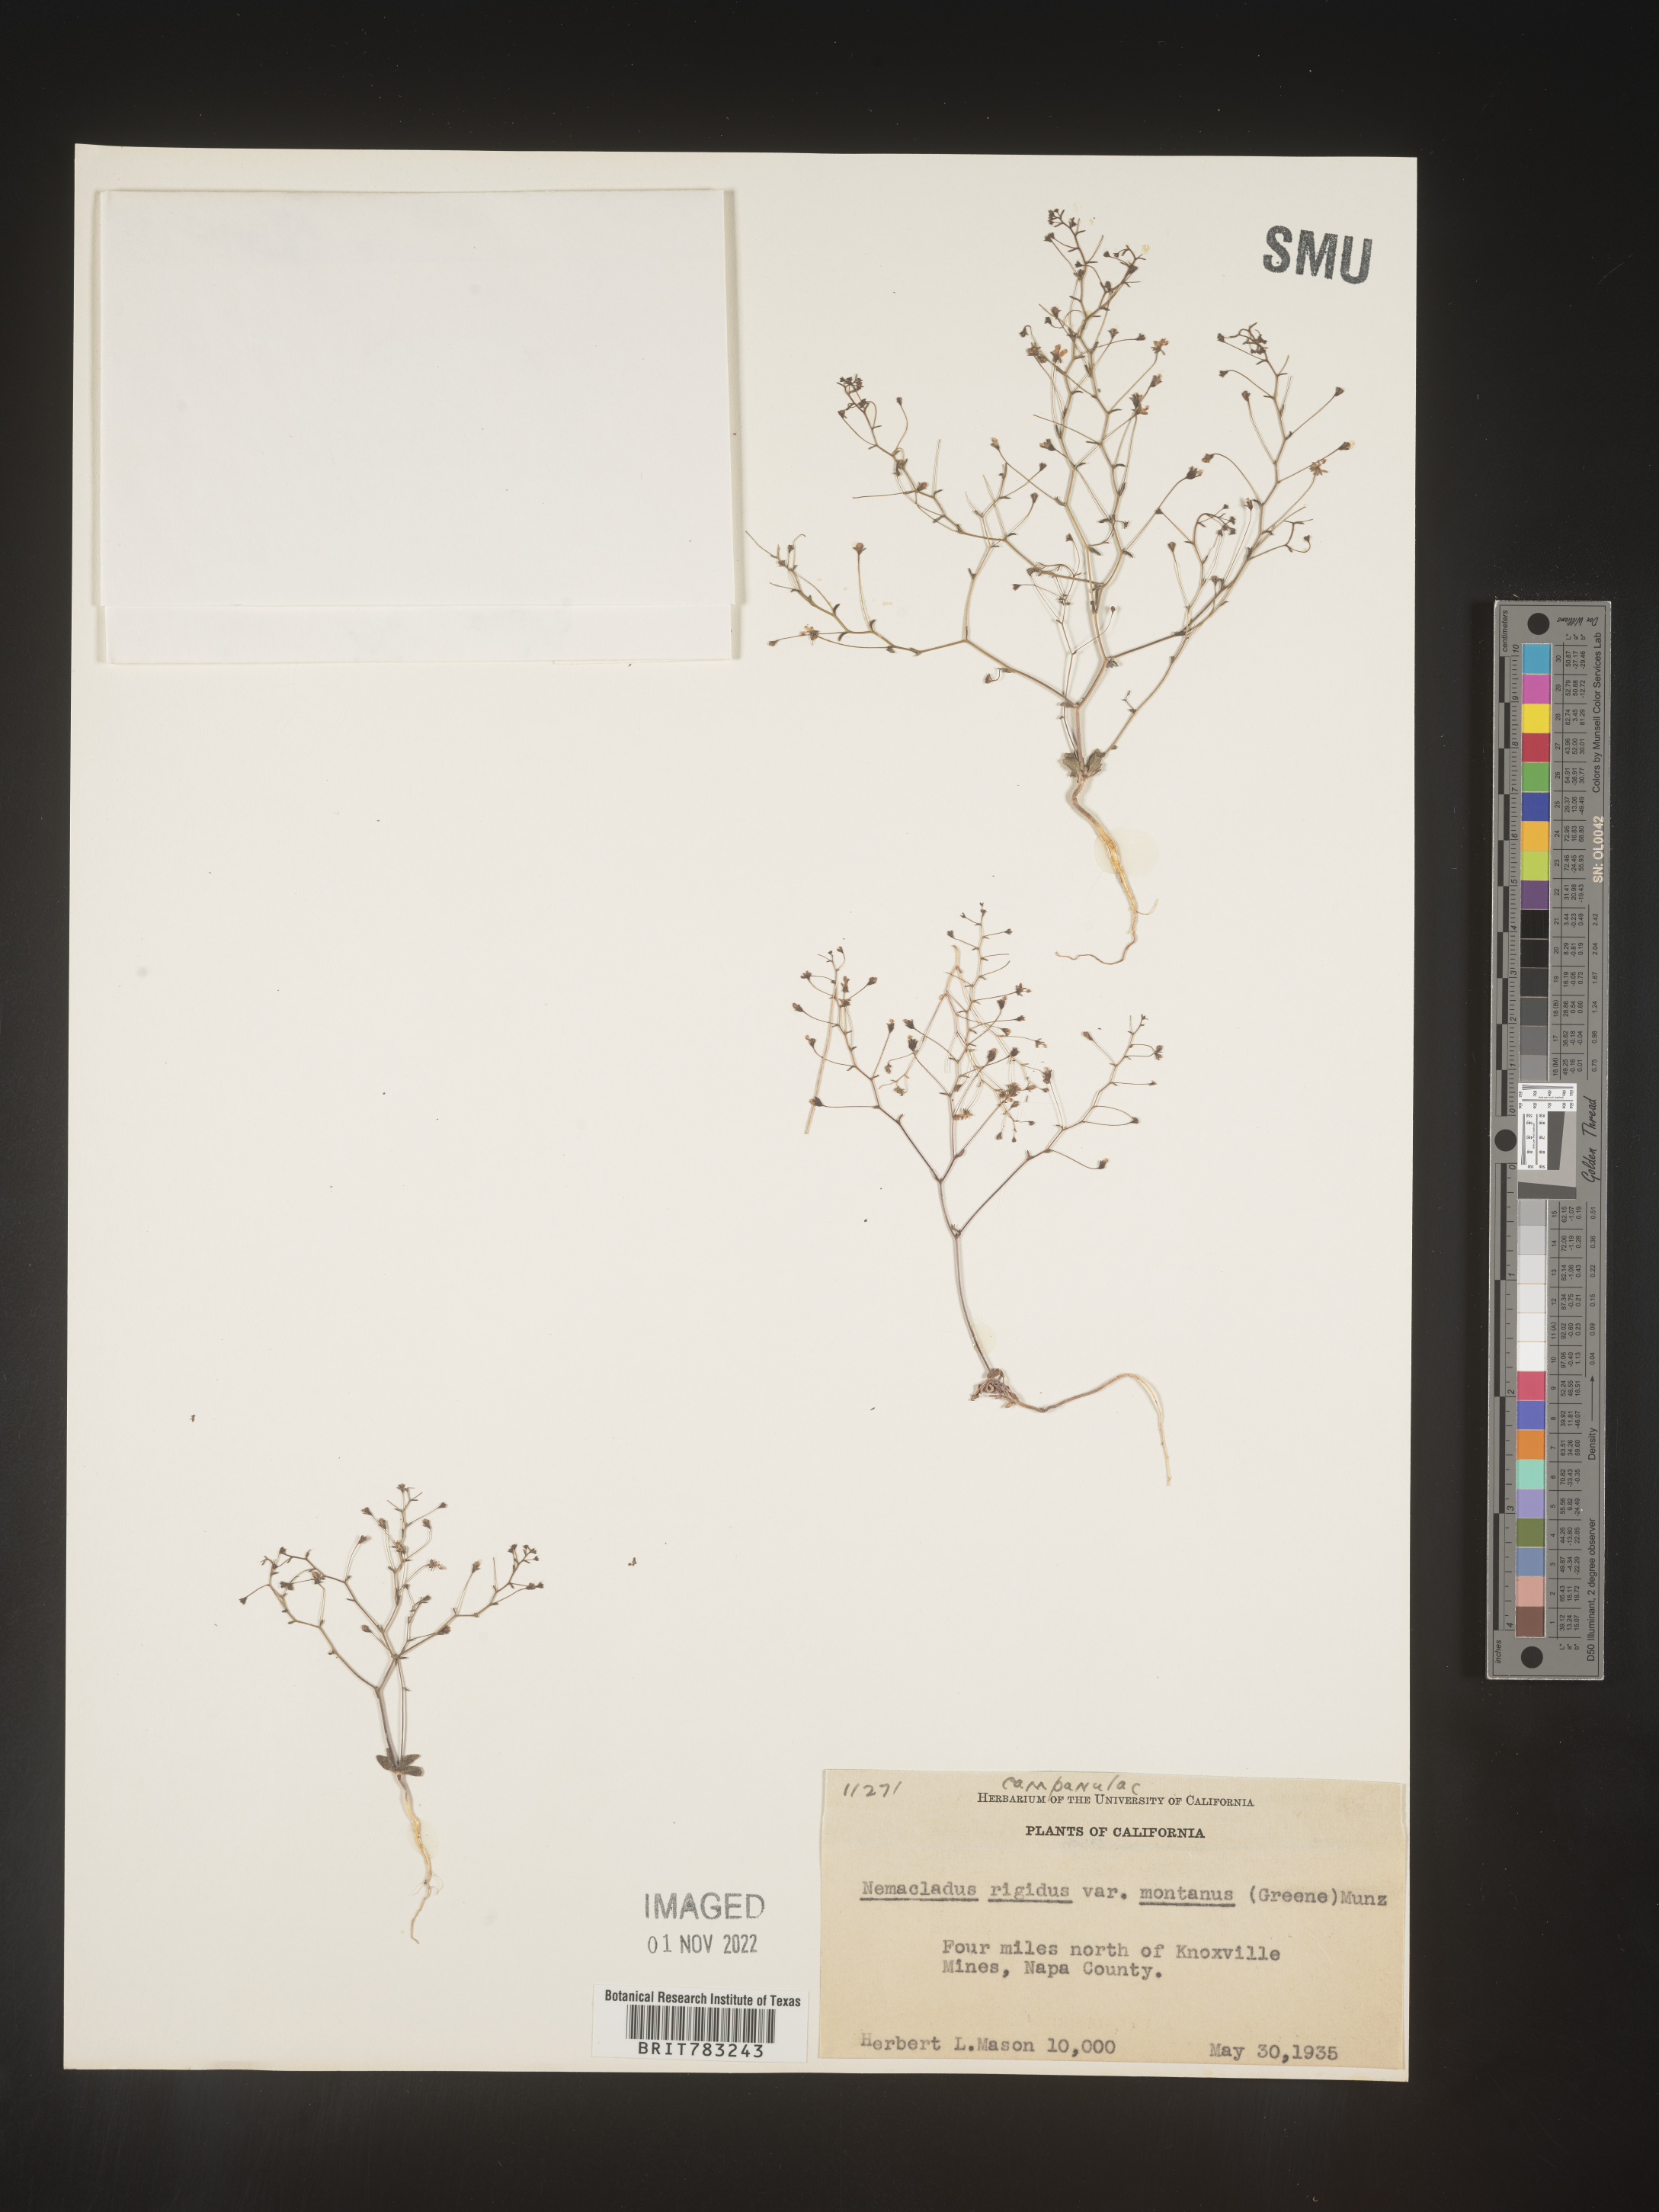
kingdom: Plantae
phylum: Tracheophyta
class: Magnoliopsida
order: Asterales
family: Campanulaceae
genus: Nemacladus
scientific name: Nemacladus
